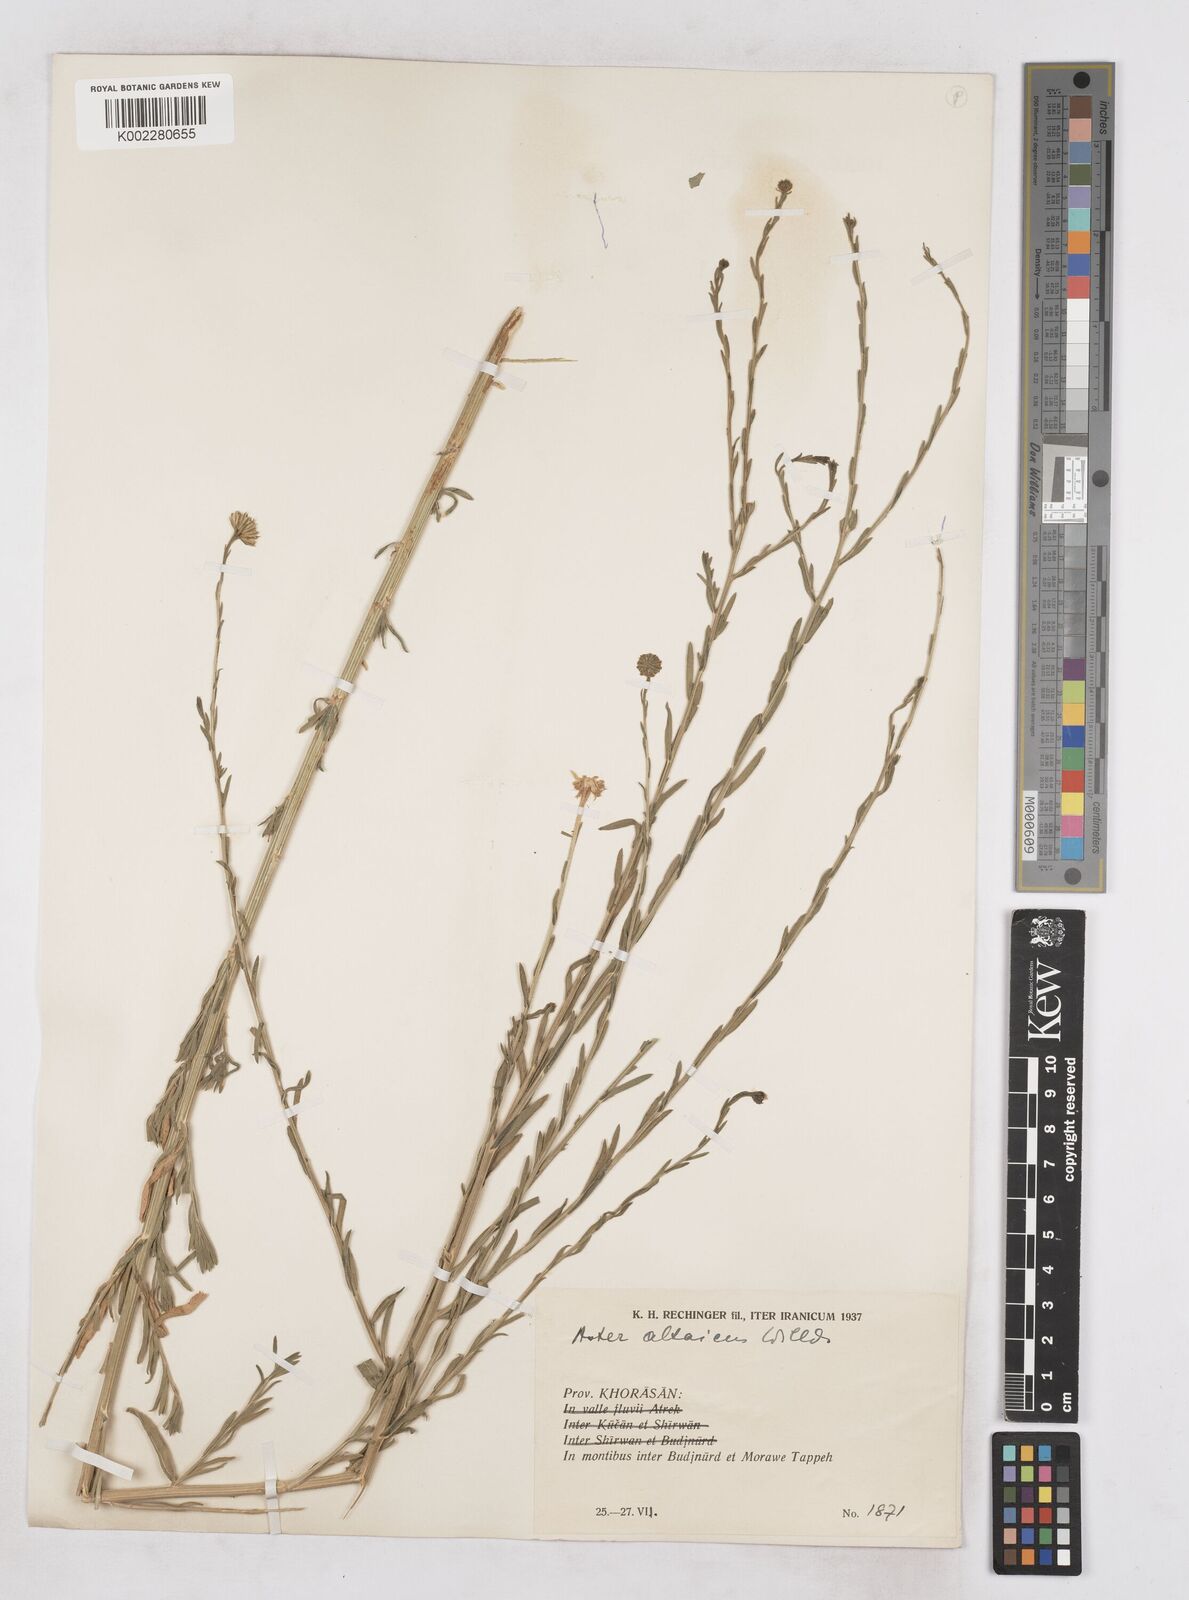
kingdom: Plantae
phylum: Tracheophyta
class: Magnoliopsida
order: Asterales
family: Asteraceae
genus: Heteropappus
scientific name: Heteropappus altaicus
